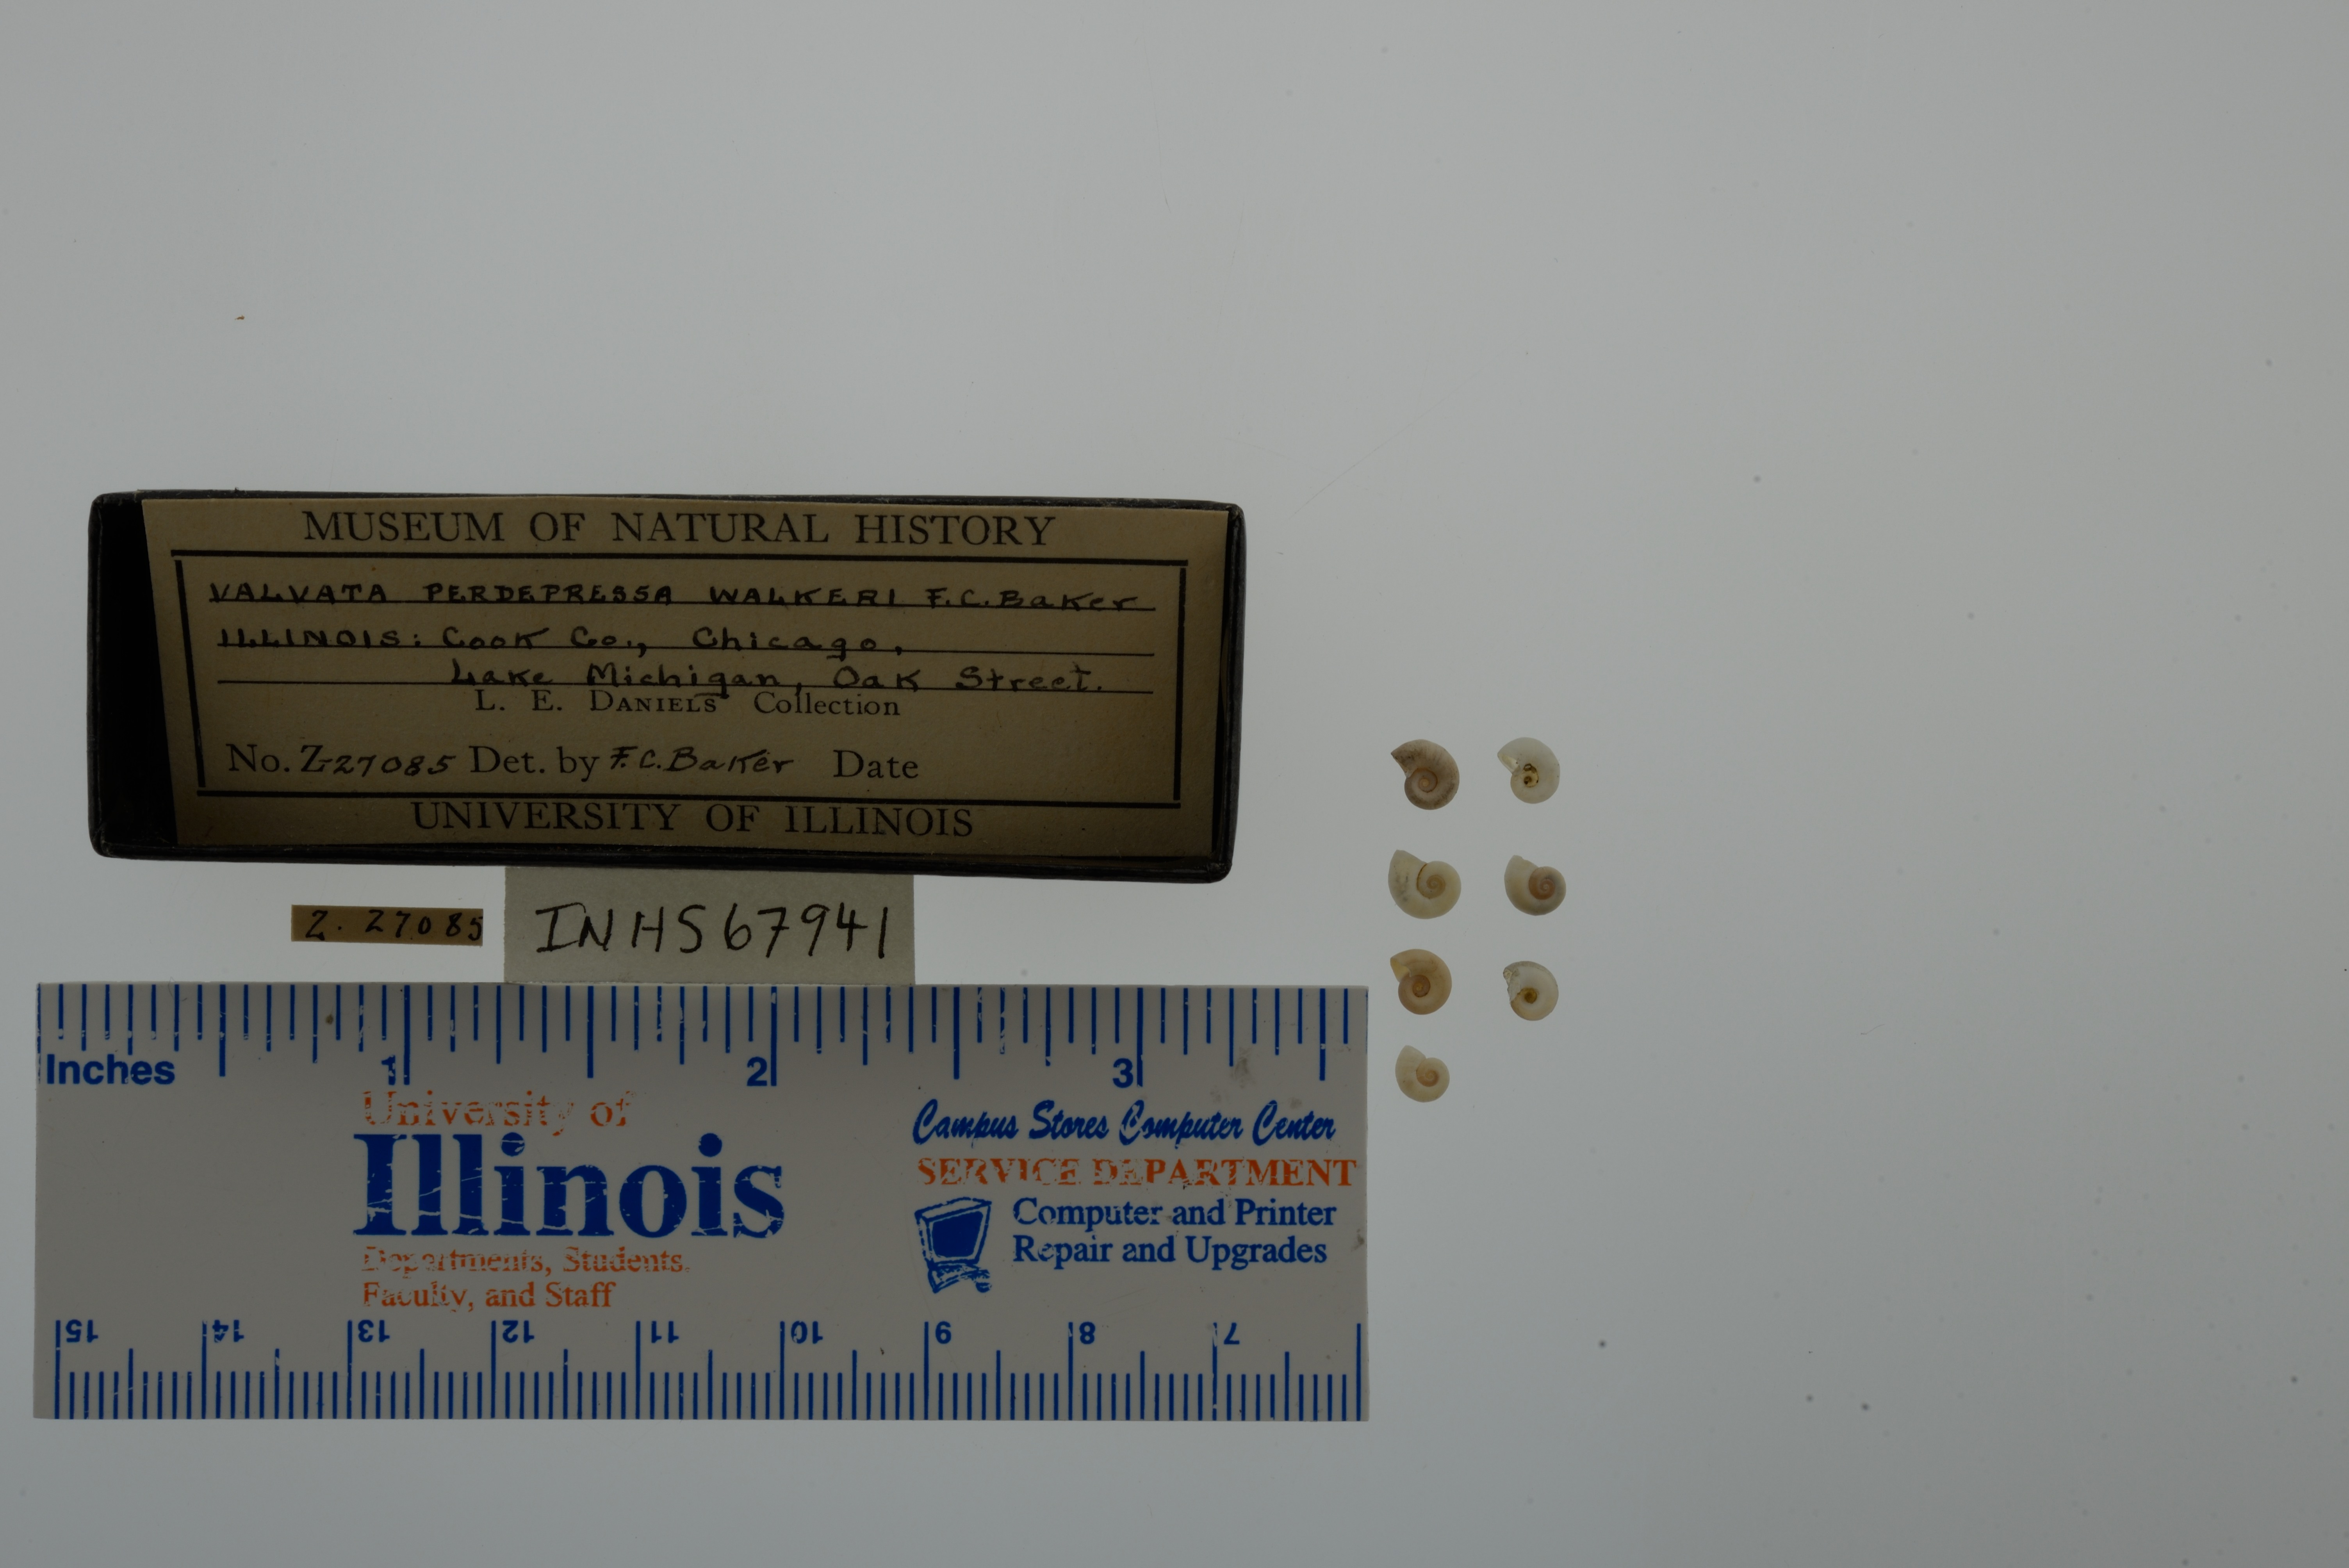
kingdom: Animalia
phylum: Mollusca
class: Gastropoda
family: Valvatidae
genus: Valvata
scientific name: Valvata perdepressa
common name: Purplecap valvata
